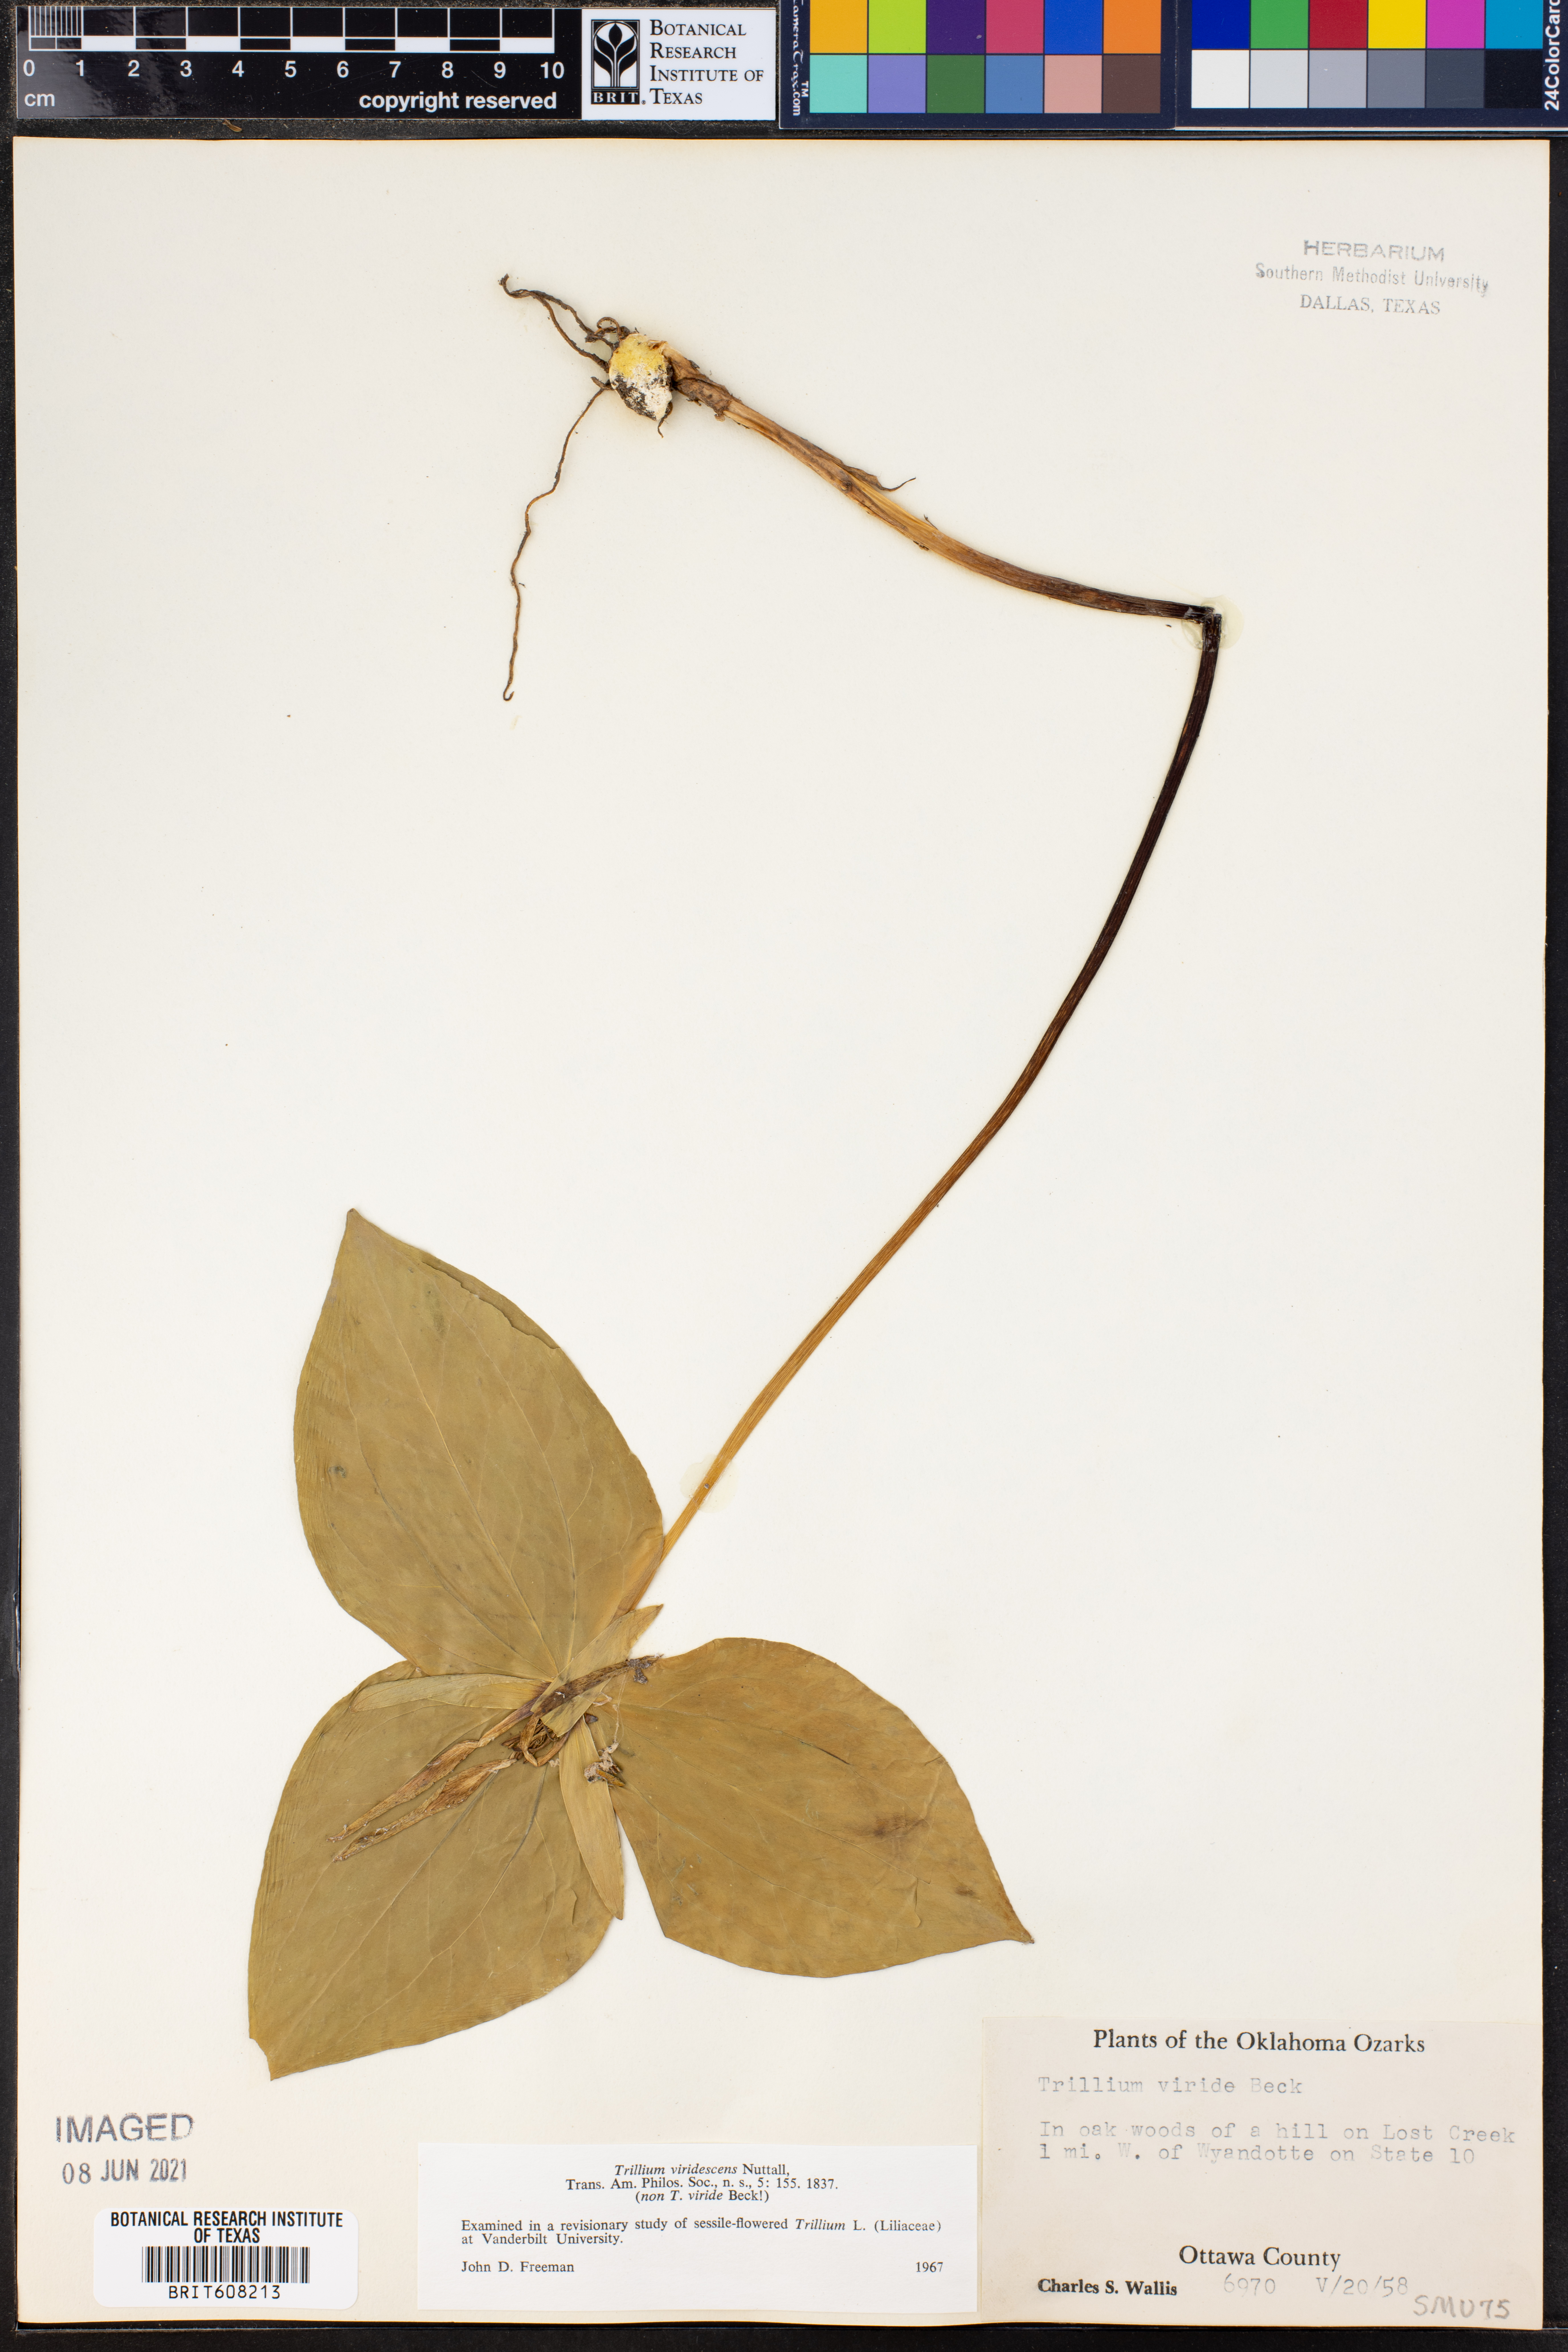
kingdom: Plantae
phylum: Tracheophyta
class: Liliopsida
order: Liliales
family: Melanthiaceae
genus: Trillium
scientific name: Trillium viridescens
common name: Ozark green trillium
